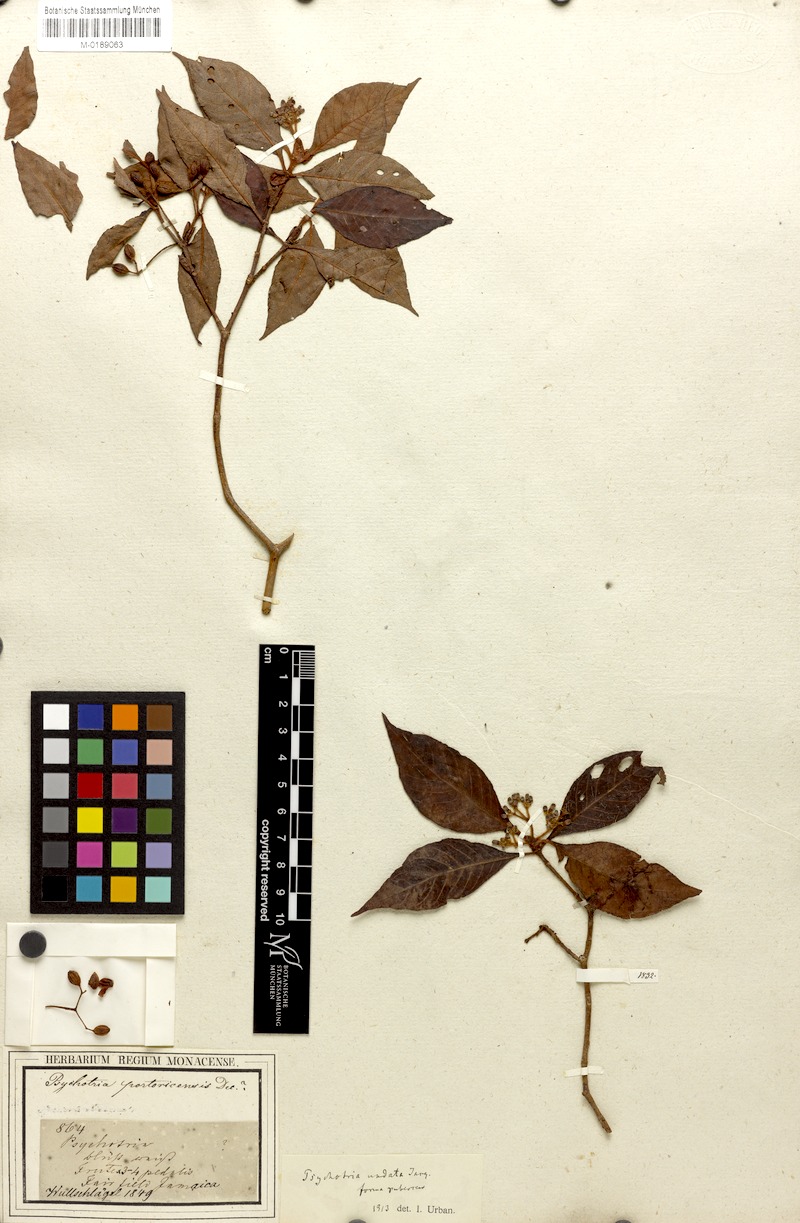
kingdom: Plantae
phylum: Tracheophyta
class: Magnoliopsida
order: Gentianales
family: Rubiaceae
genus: Psychotria
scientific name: Psychotria nervosa
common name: Bastard cankerberry
